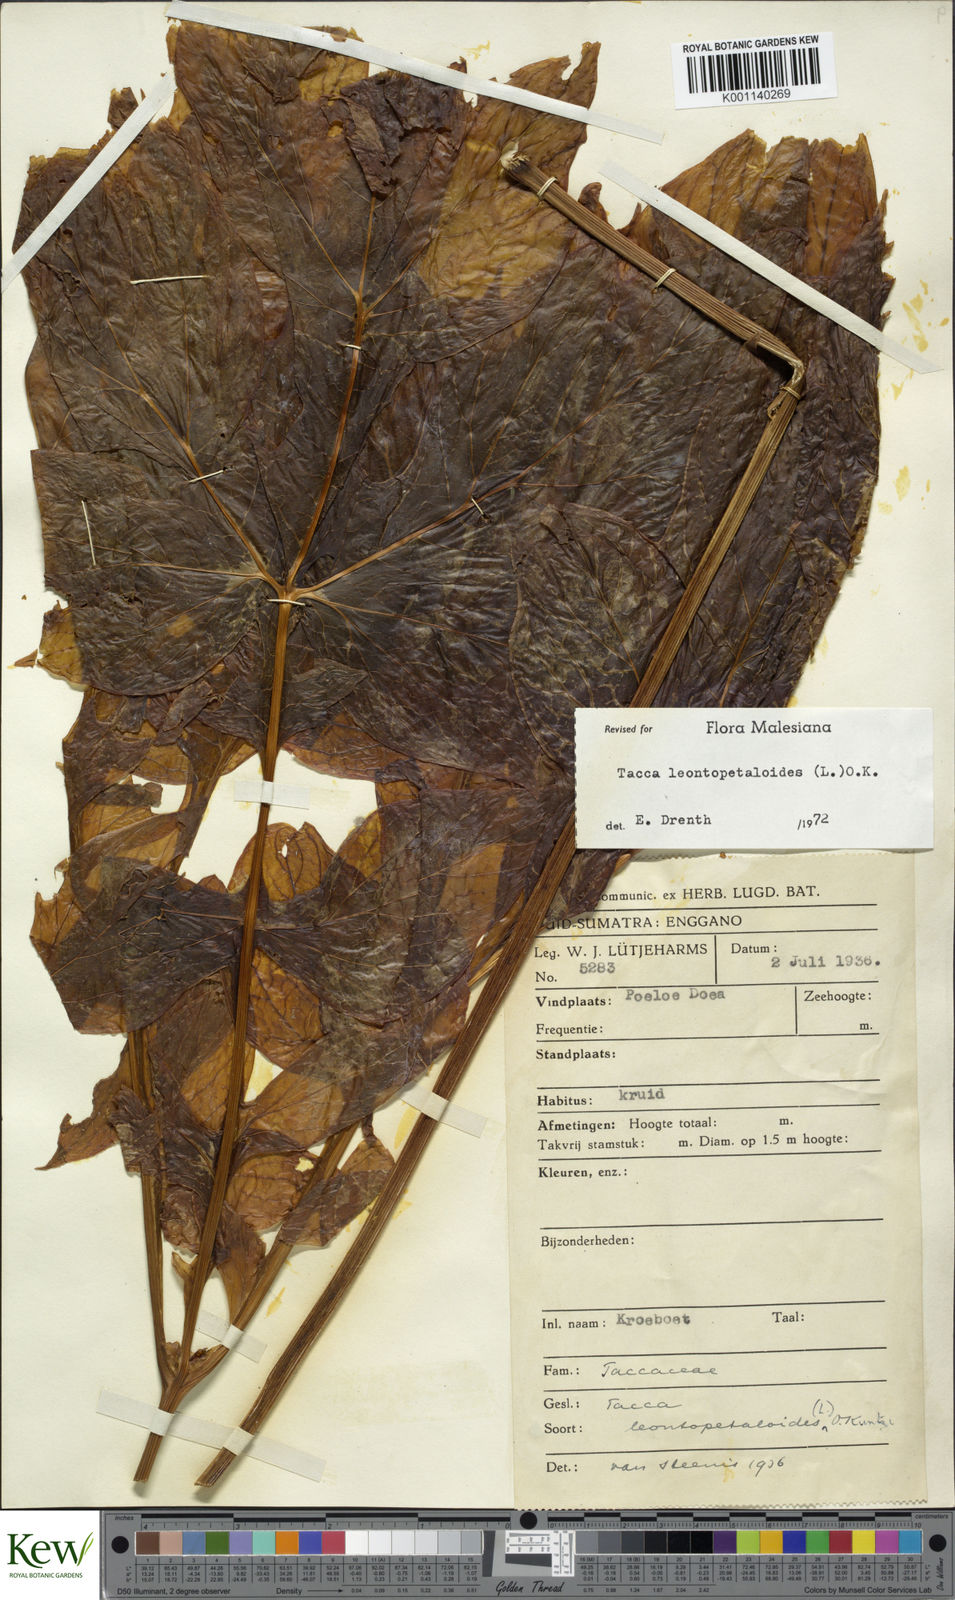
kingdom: Plantae
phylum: Tracheophyta
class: Liliopsida
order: Dioscoreales
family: Dioscoreaceae
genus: Tacca
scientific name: Tacca leontopetaloides
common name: Arrowroot
